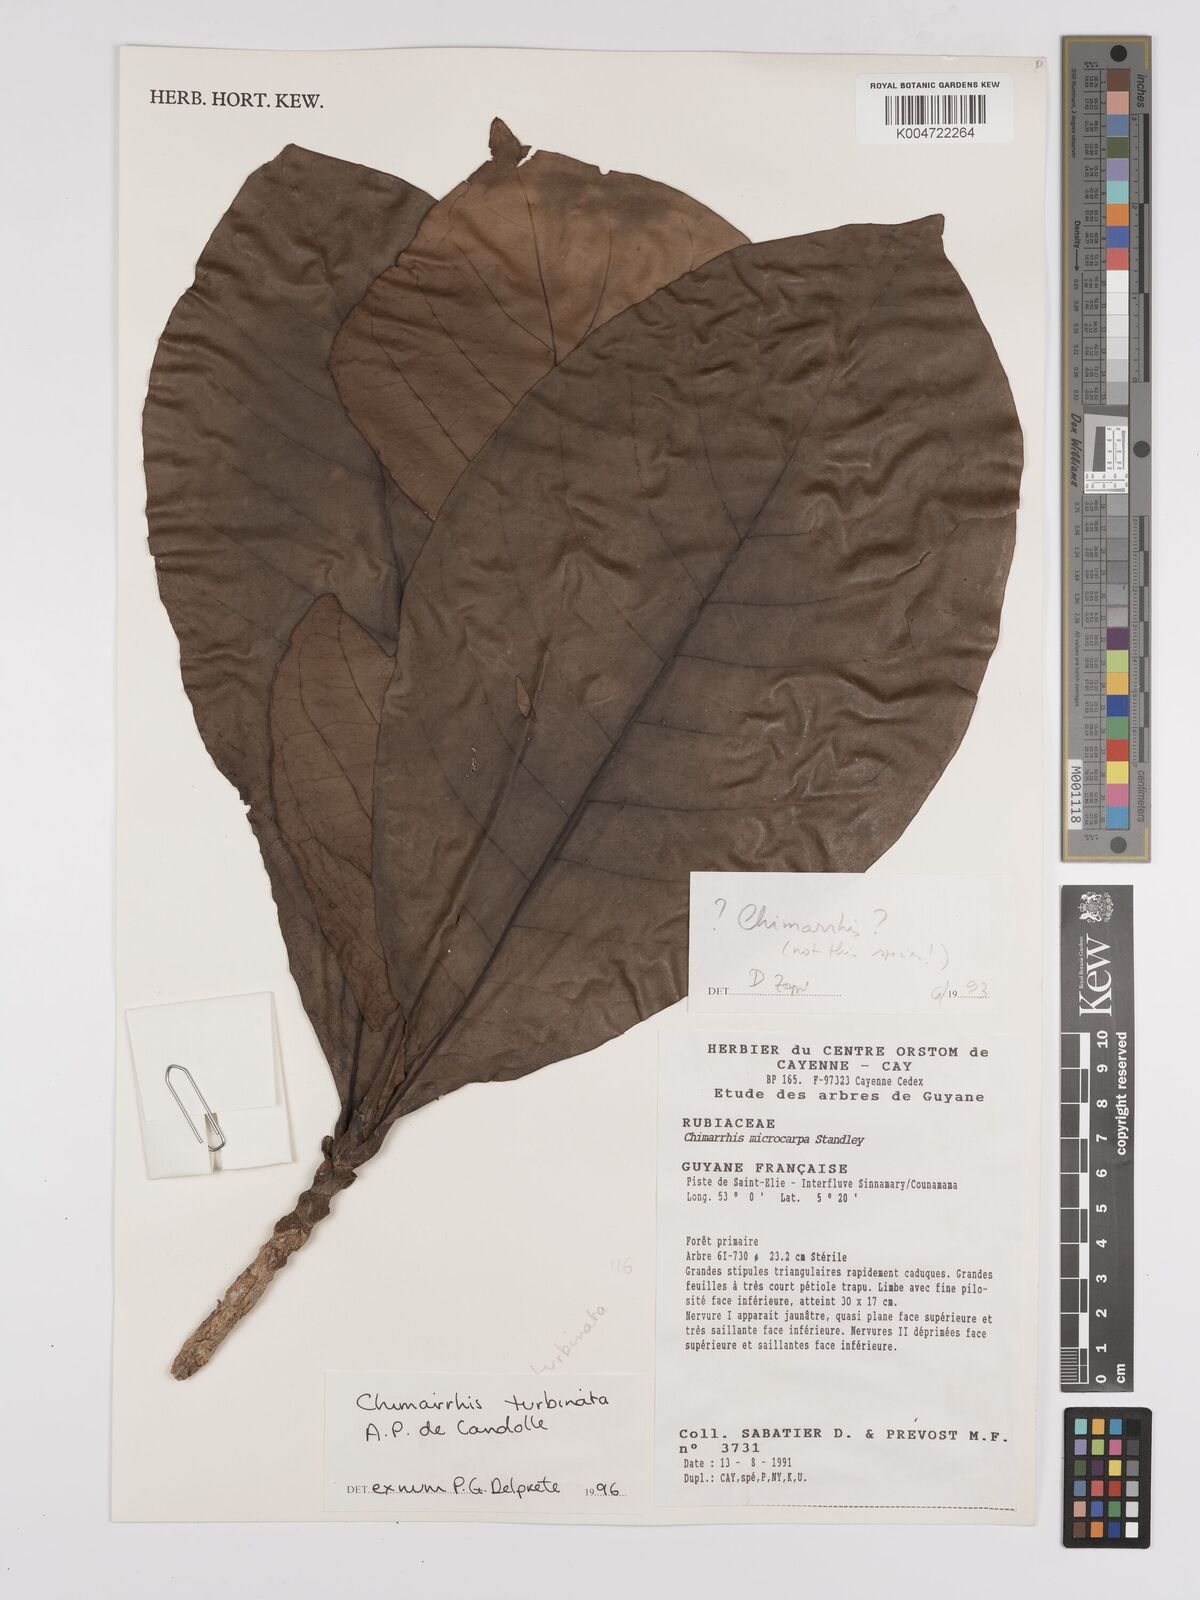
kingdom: Plantae
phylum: Tracheophyta
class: Magnoliopsida
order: Gentianales
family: Rubiaceae
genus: Chimarrhis
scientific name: Chimarrhis turbinata
